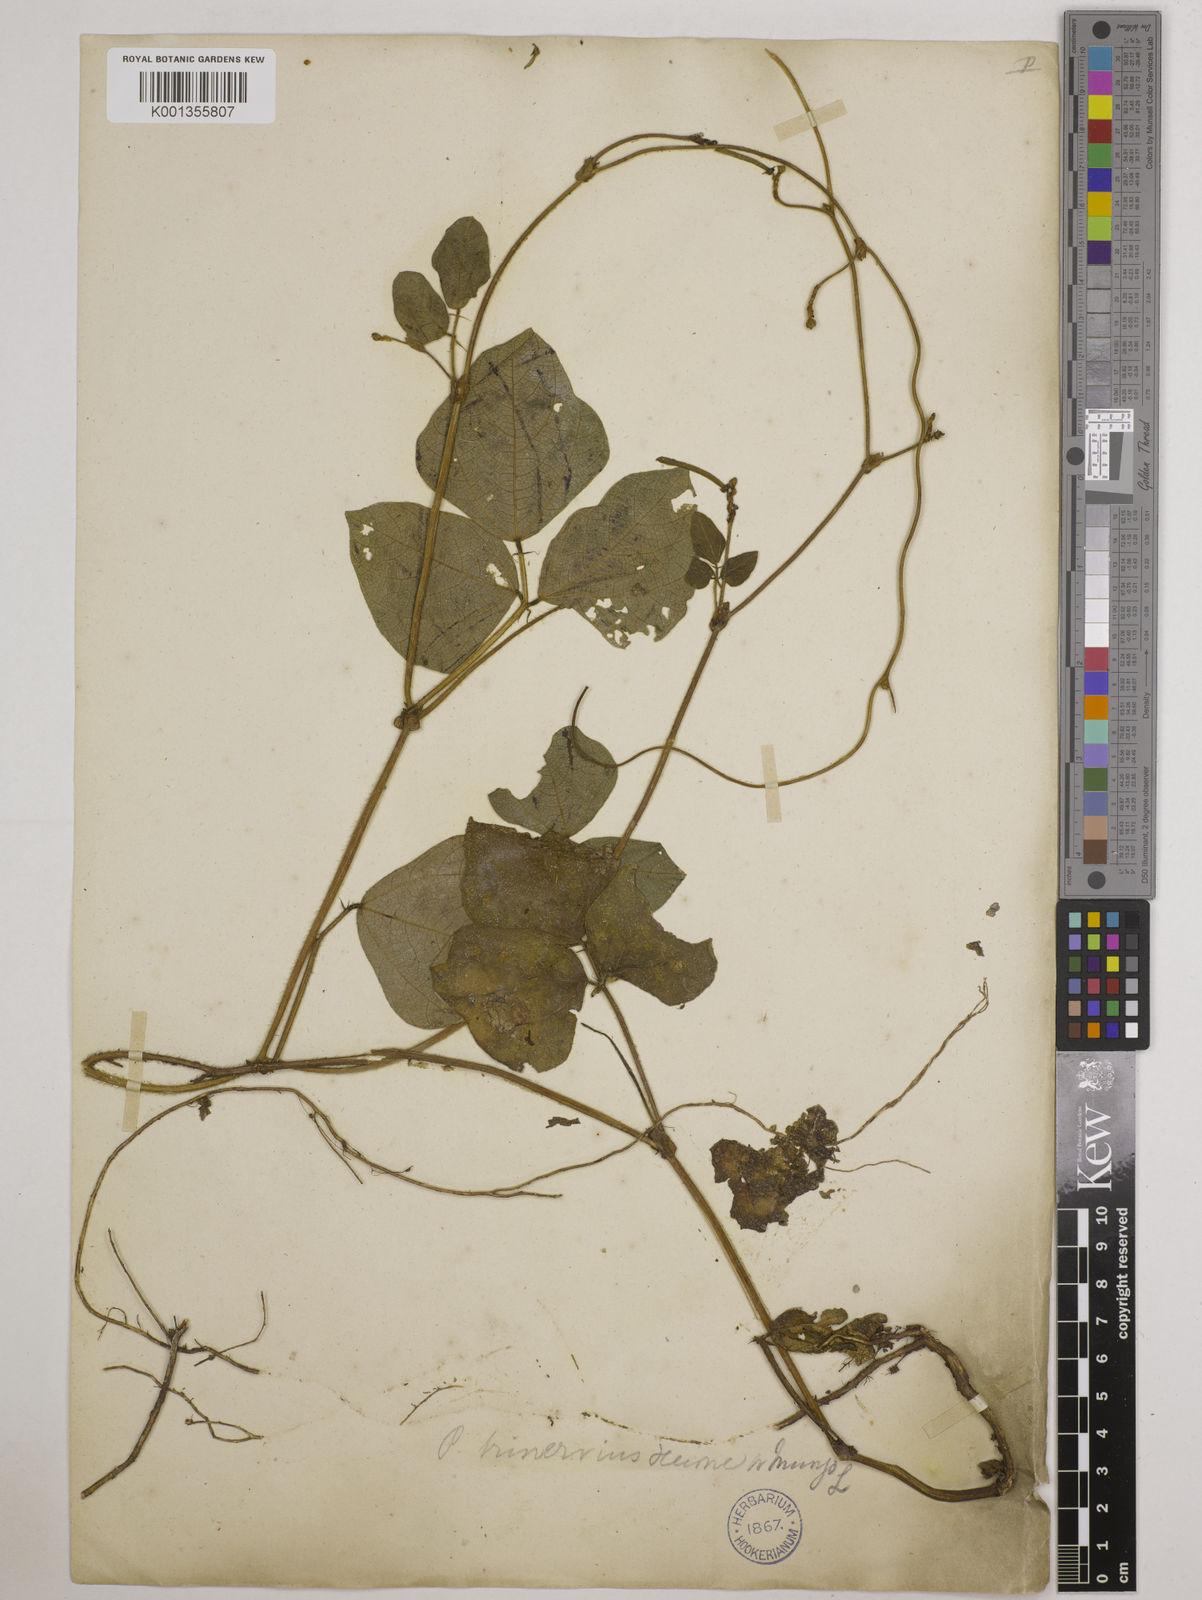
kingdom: Plantae
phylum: Tracheophyta
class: Magnoliopsida
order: Fabales
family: Fabaceae
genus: Vigna
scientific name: Vigna radiata
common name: Mung-bean
